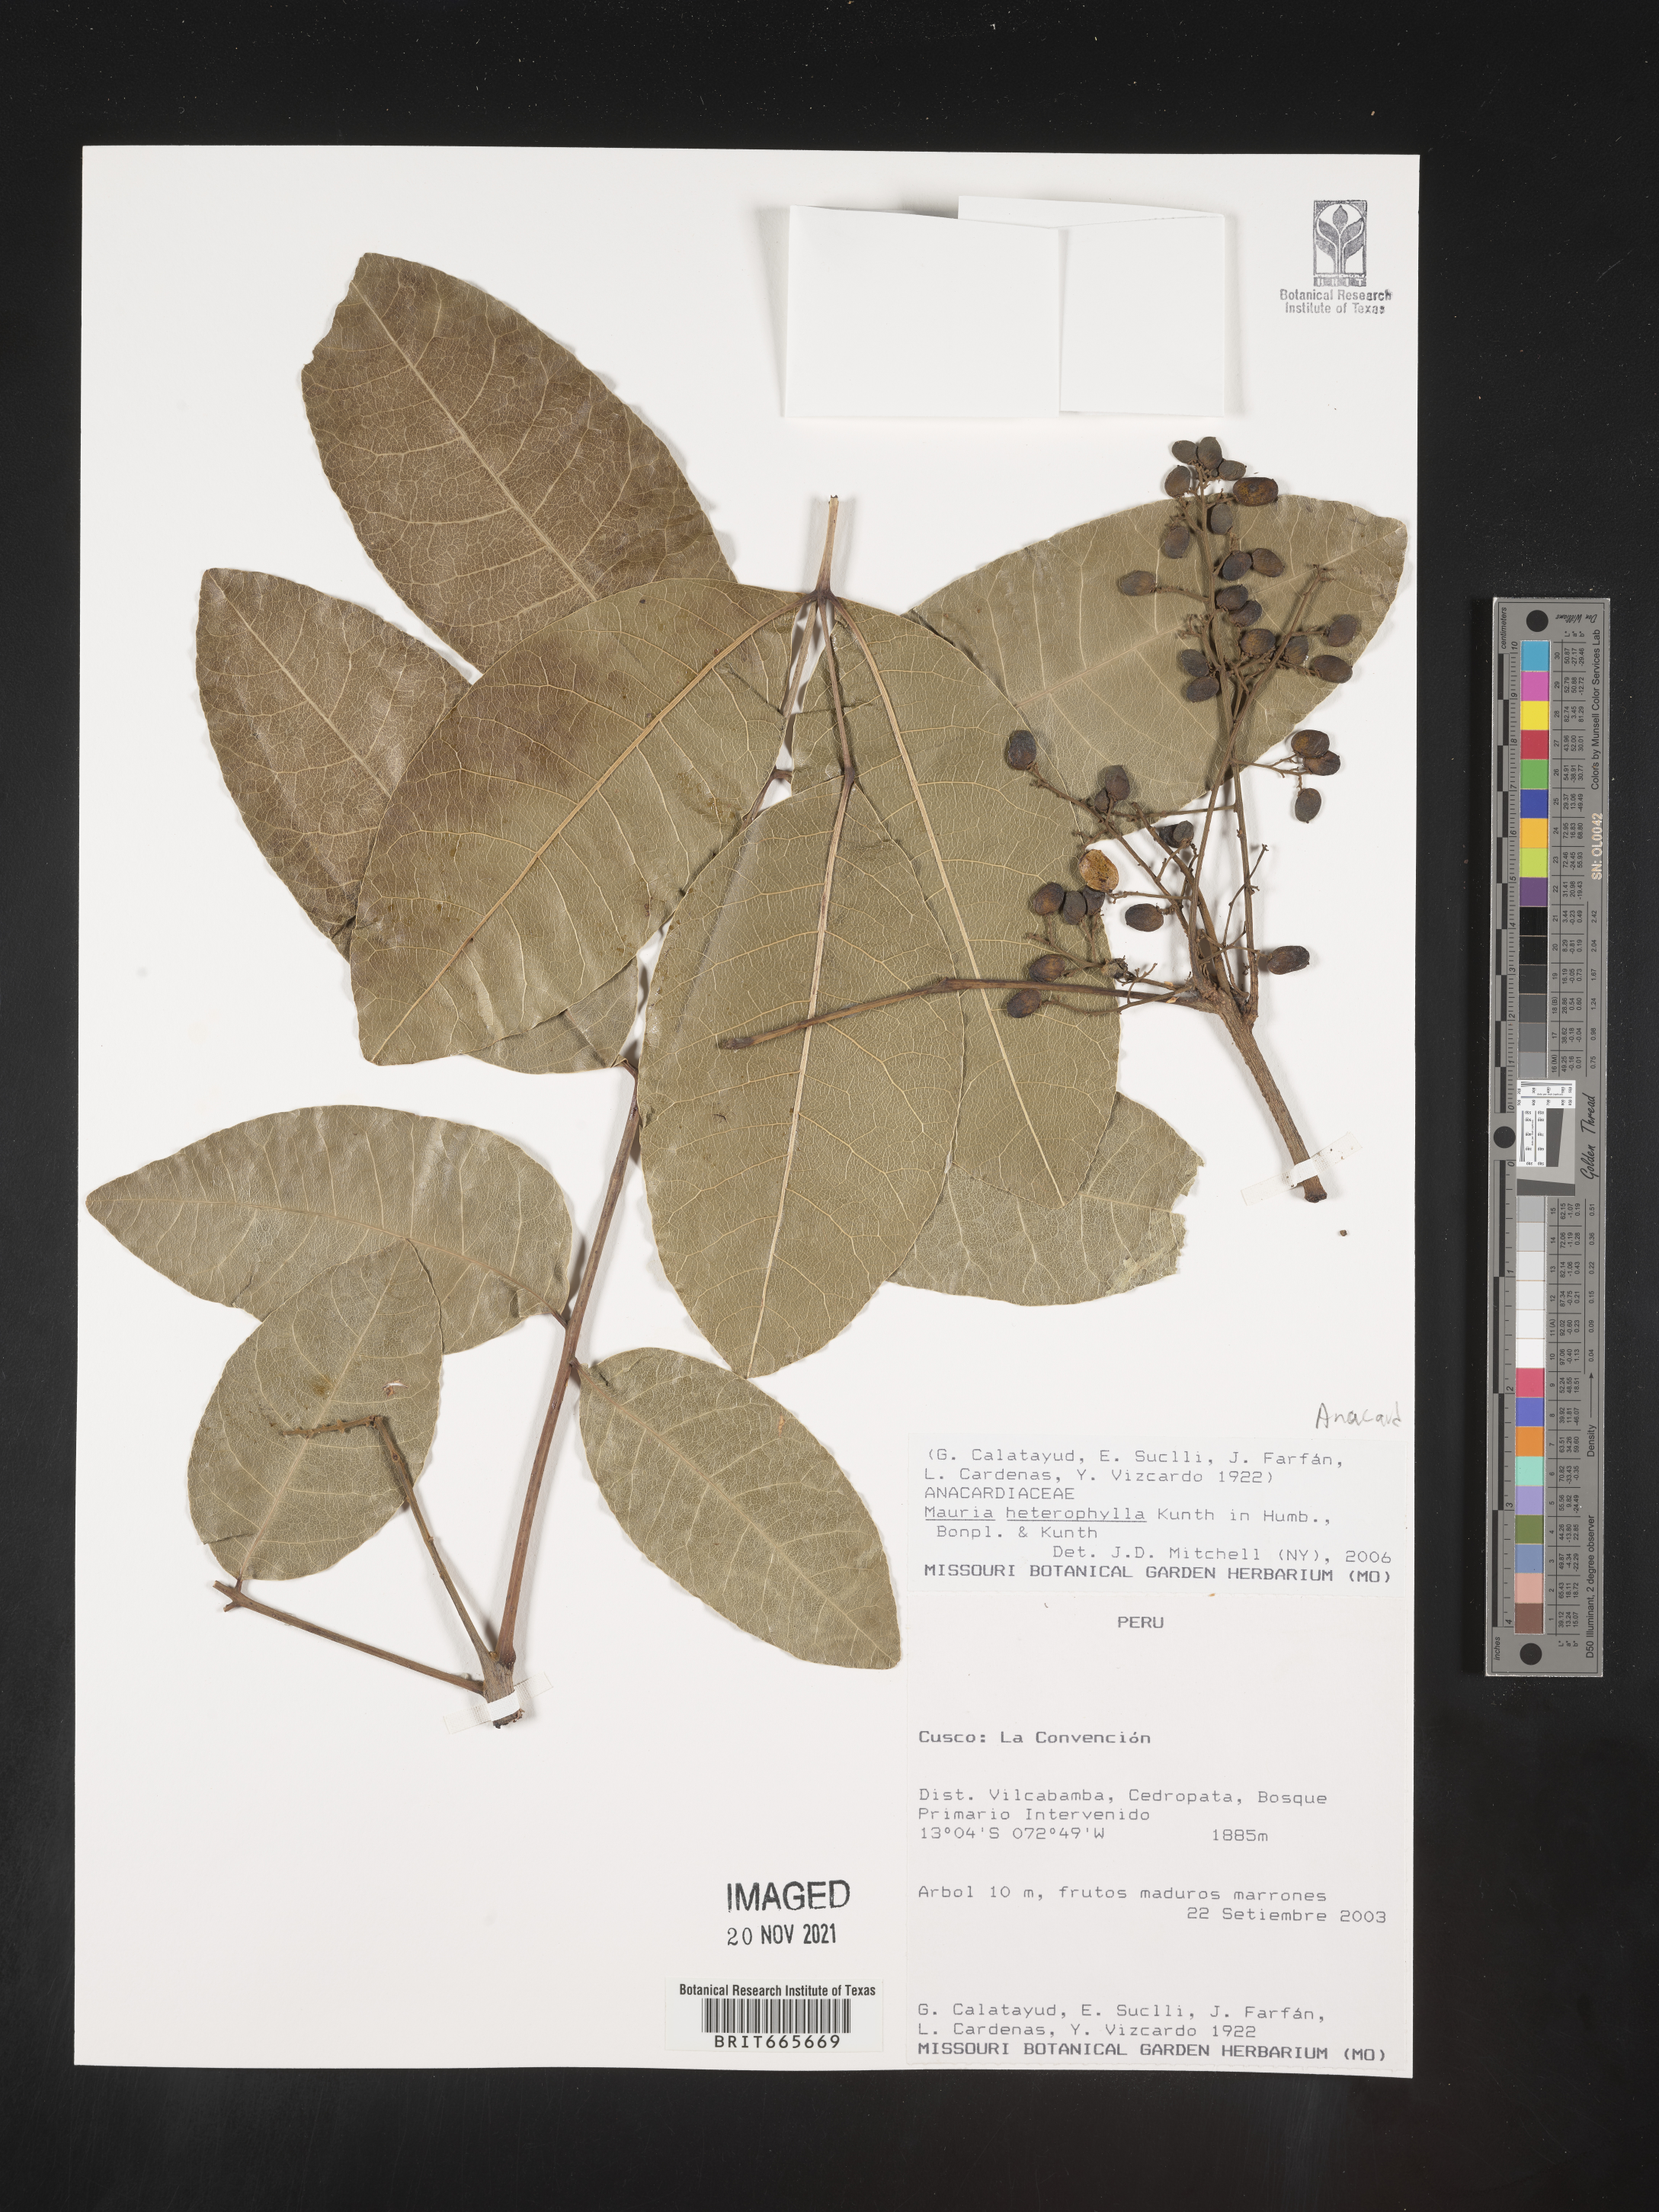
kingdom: Plantae
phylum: Tracheophyta
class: Magnoliopsida
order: Sapindales
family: Anacardiaceae
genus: Mauria
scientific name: Mauria
